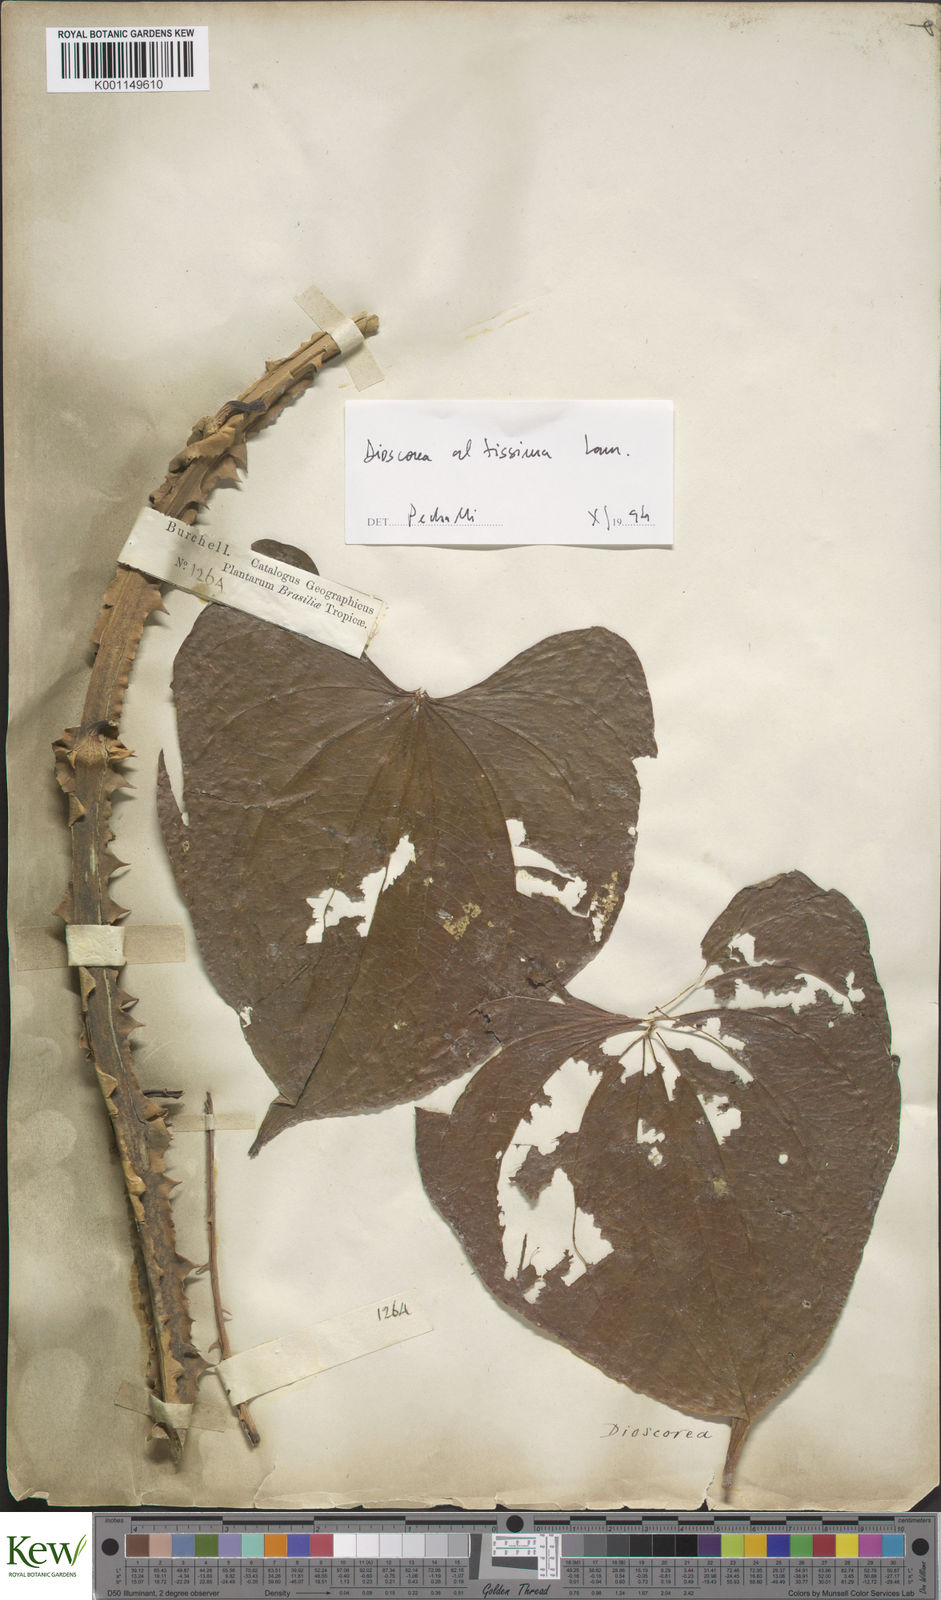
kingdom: Plantae
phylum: Tracheophyta
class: Liliopsida
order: Dioscoreales
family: Dioscoreaceae
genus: Dioscorea
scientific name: Dioscorea chondrocarpa
